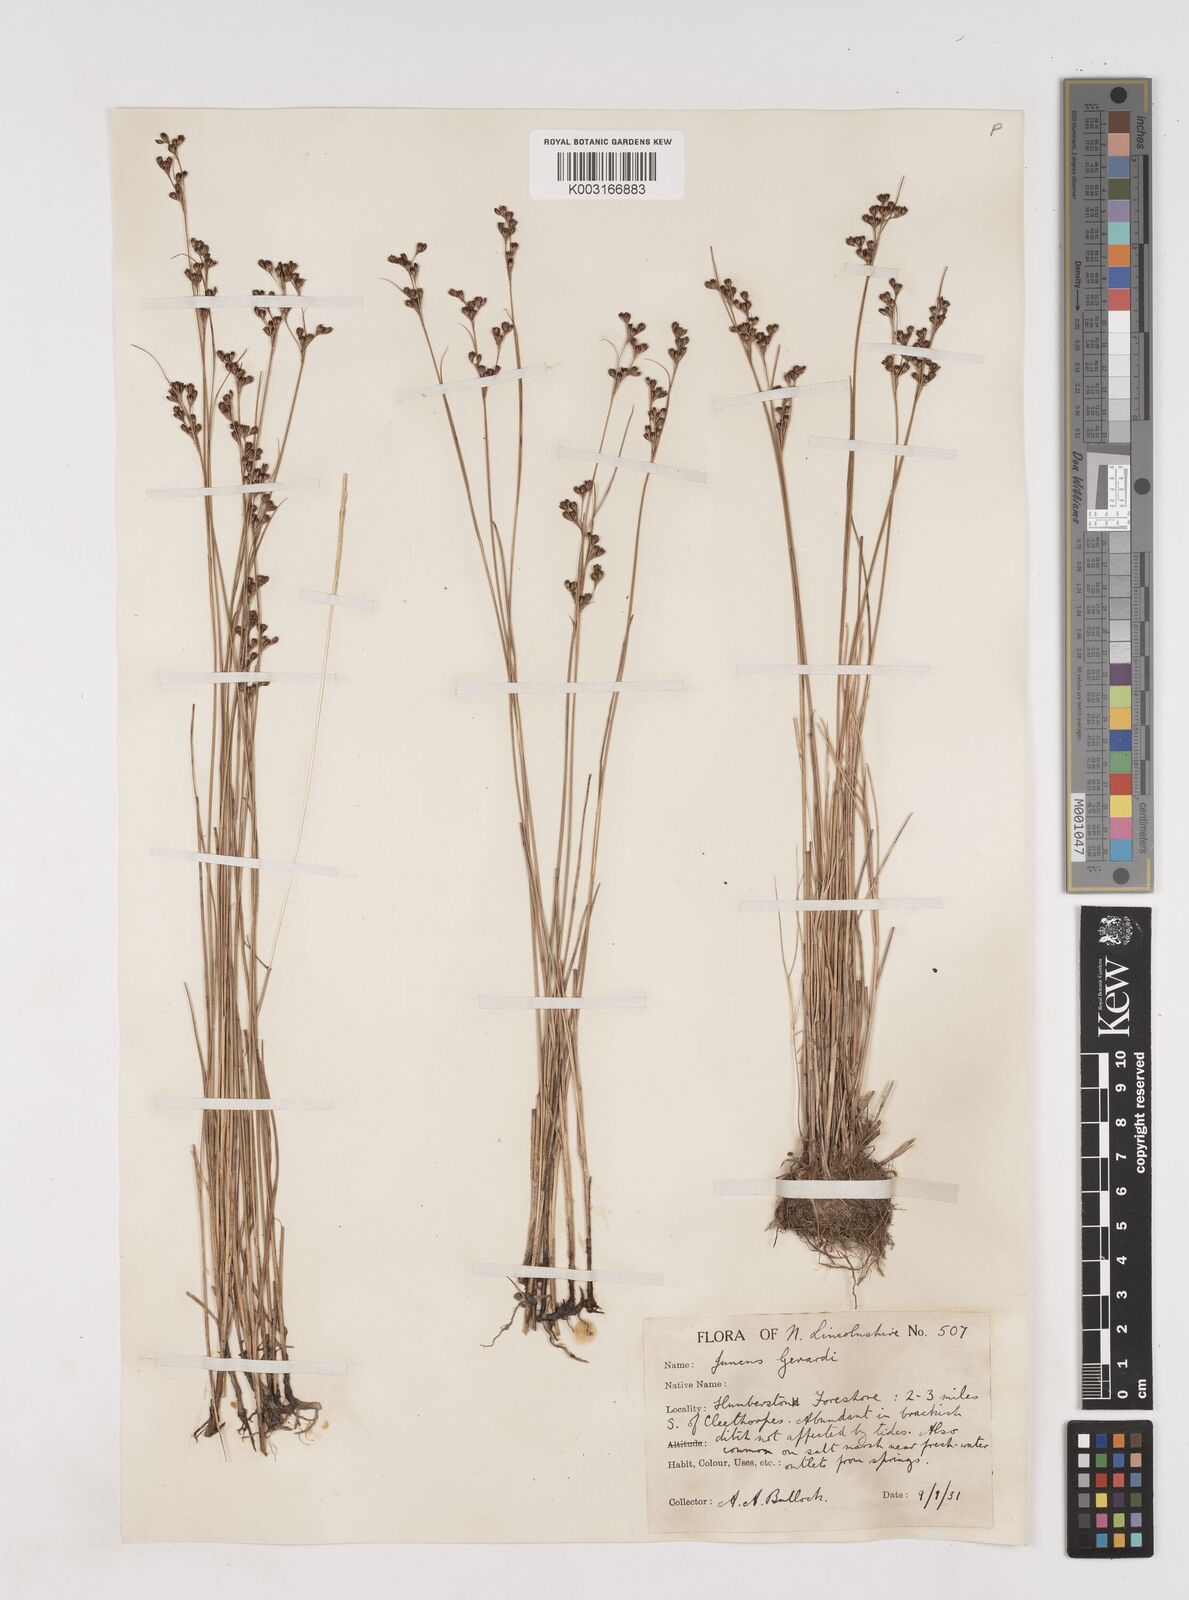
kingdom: Plantae
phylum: Tracheophyta
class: Liliopsida
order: Poales
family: Juncaceae
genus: Juncus
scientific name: Juncus gerardi
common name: Saltmarsh rush
